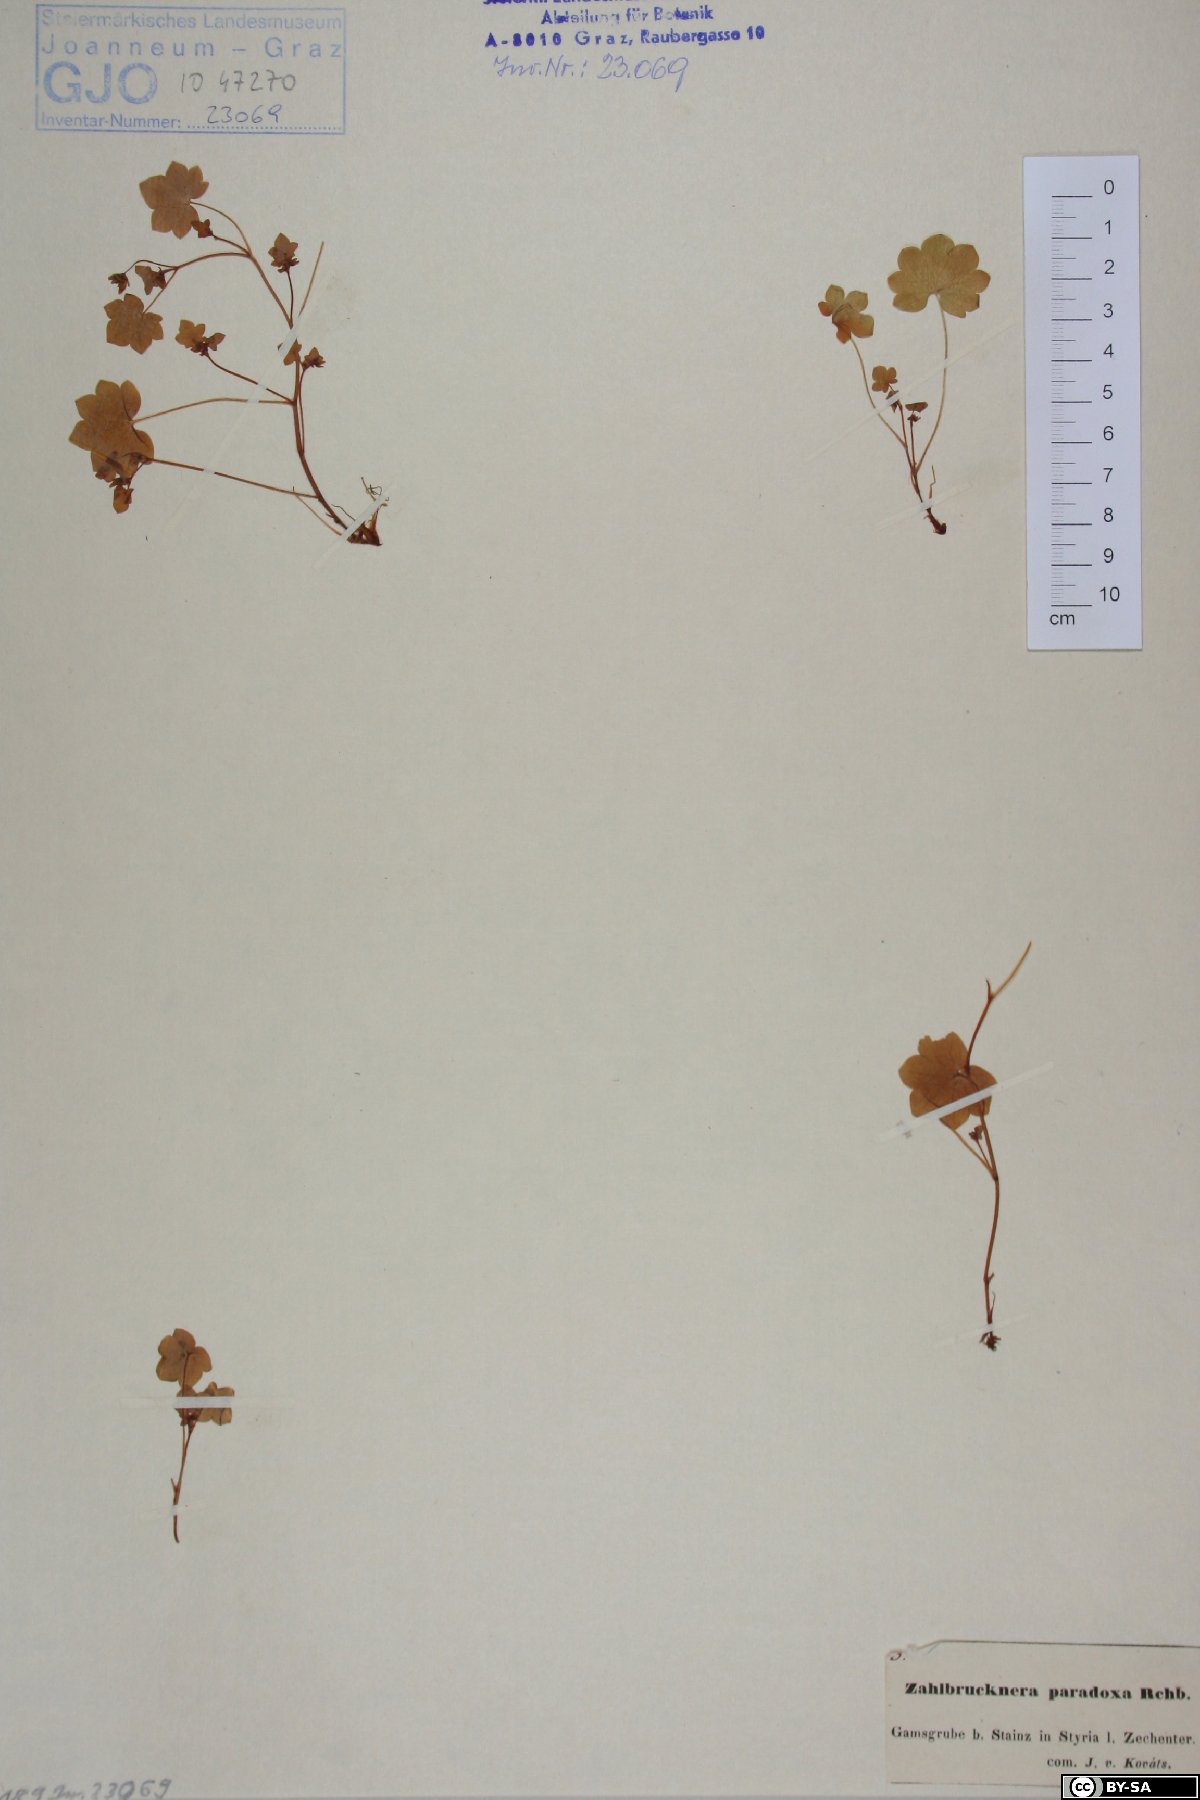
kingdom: Plantae
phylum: Tracheophyta
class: Magnoliopsida
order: Saxifragales
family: Saxifragaceae
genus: Saxifraga
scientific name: Saxifraga paradoxa
